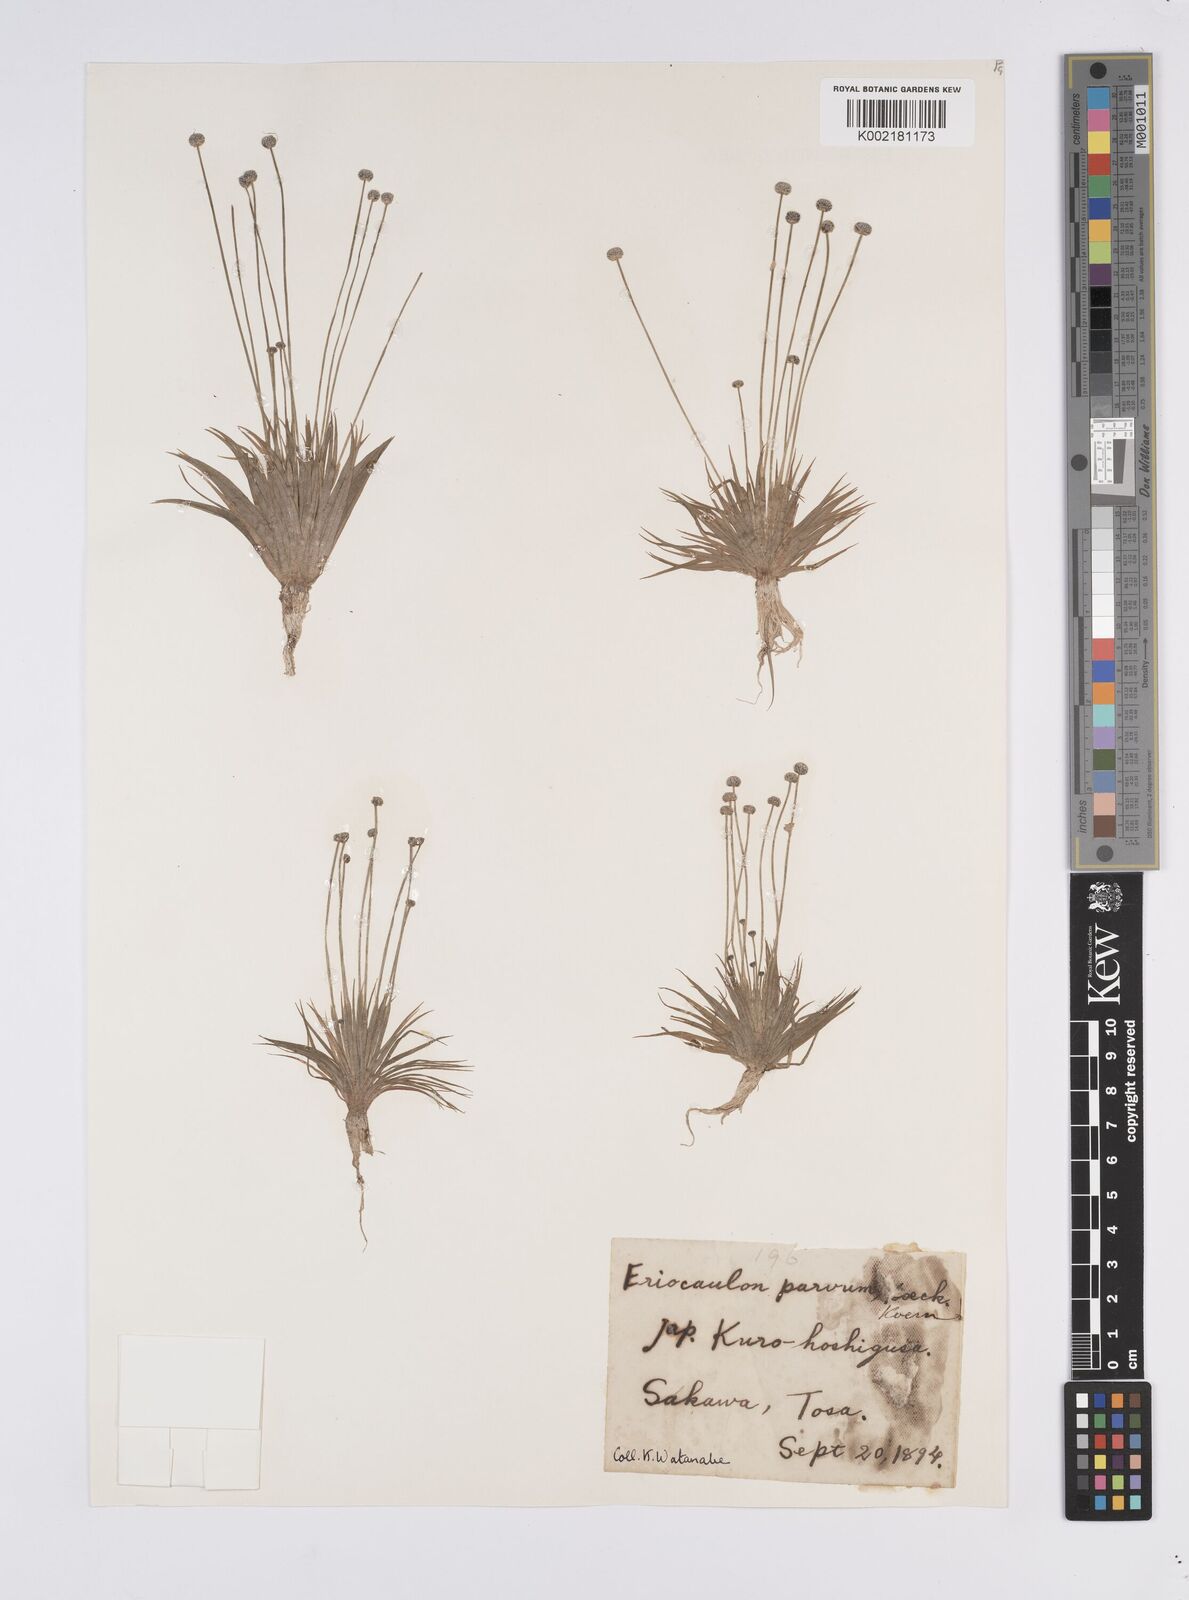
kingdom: Plantae
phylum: Tracheophyta
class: Liliopsida
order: Poales
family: Eriocaulaceae
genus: Eriocaulon
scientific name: Eriocaulon parvum
